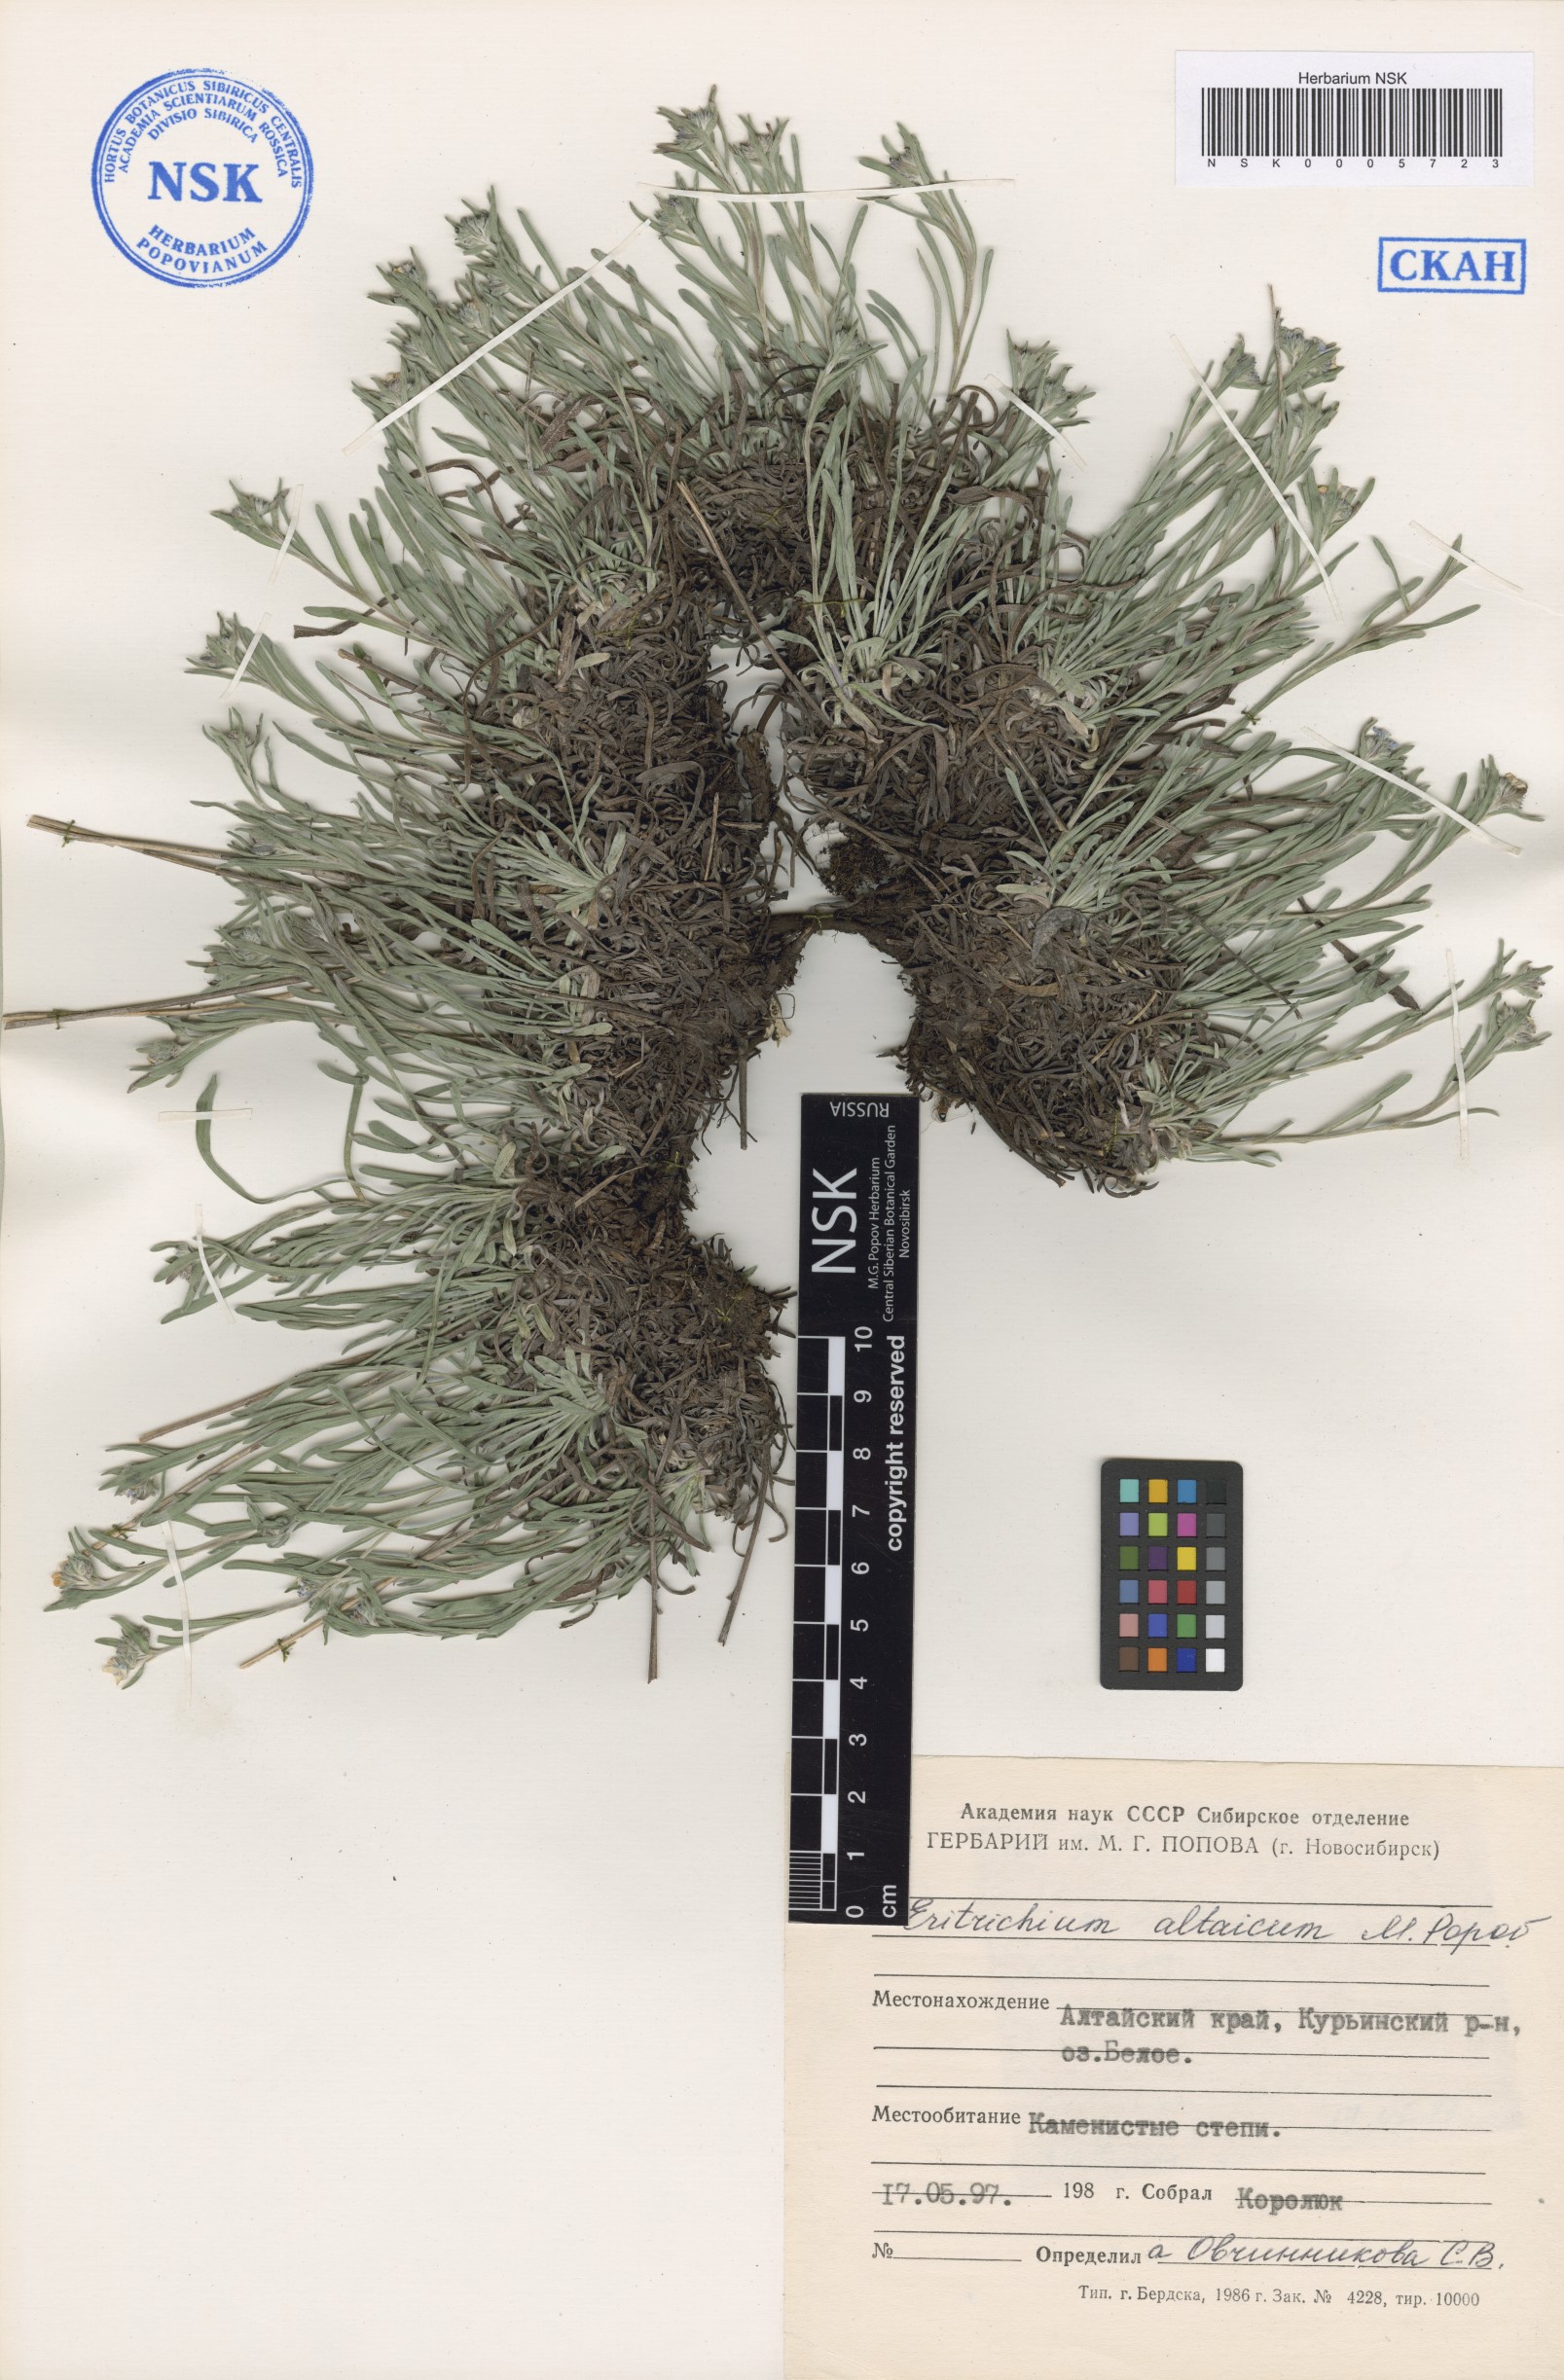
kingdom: Plantae
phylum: Tracheophyta
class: Magnoliopsida
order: Boraginales
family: Boraginaceae
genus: Eritrichium
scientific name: Eritrichium pauciflorum
